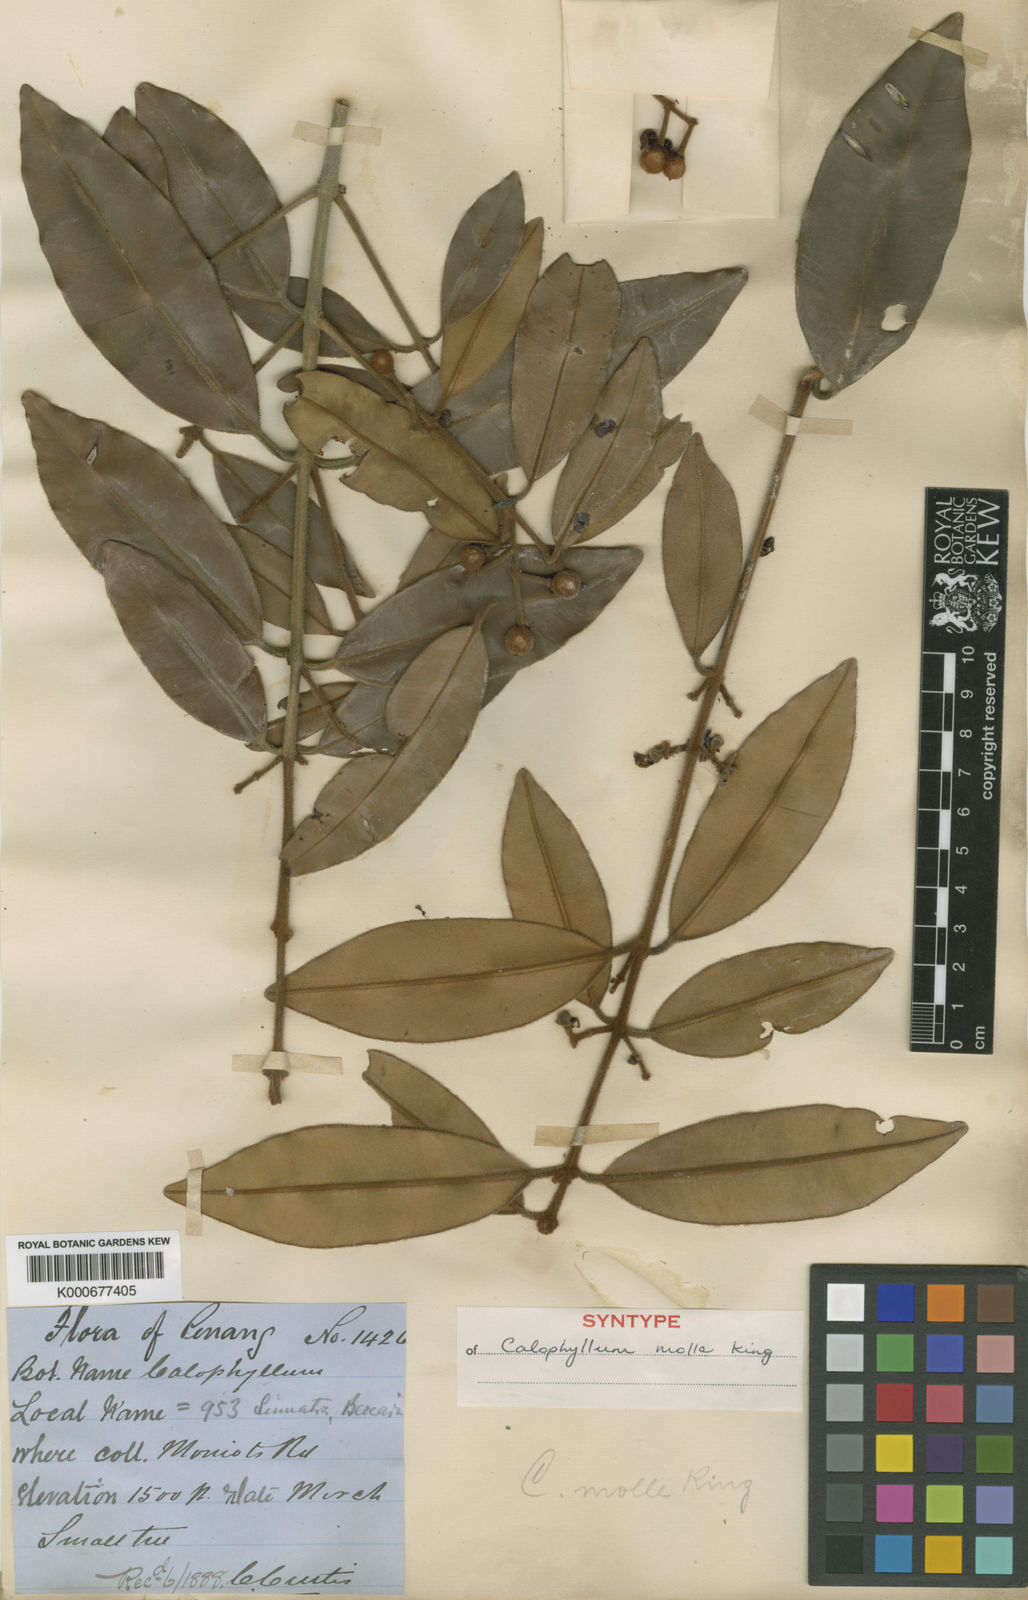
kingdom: Plantae
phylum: Tracheophyta
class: Magnoliopsida
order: Malpighiales
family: Calophyllaceae
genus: Calophyllum
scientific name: Calophyllum molle
